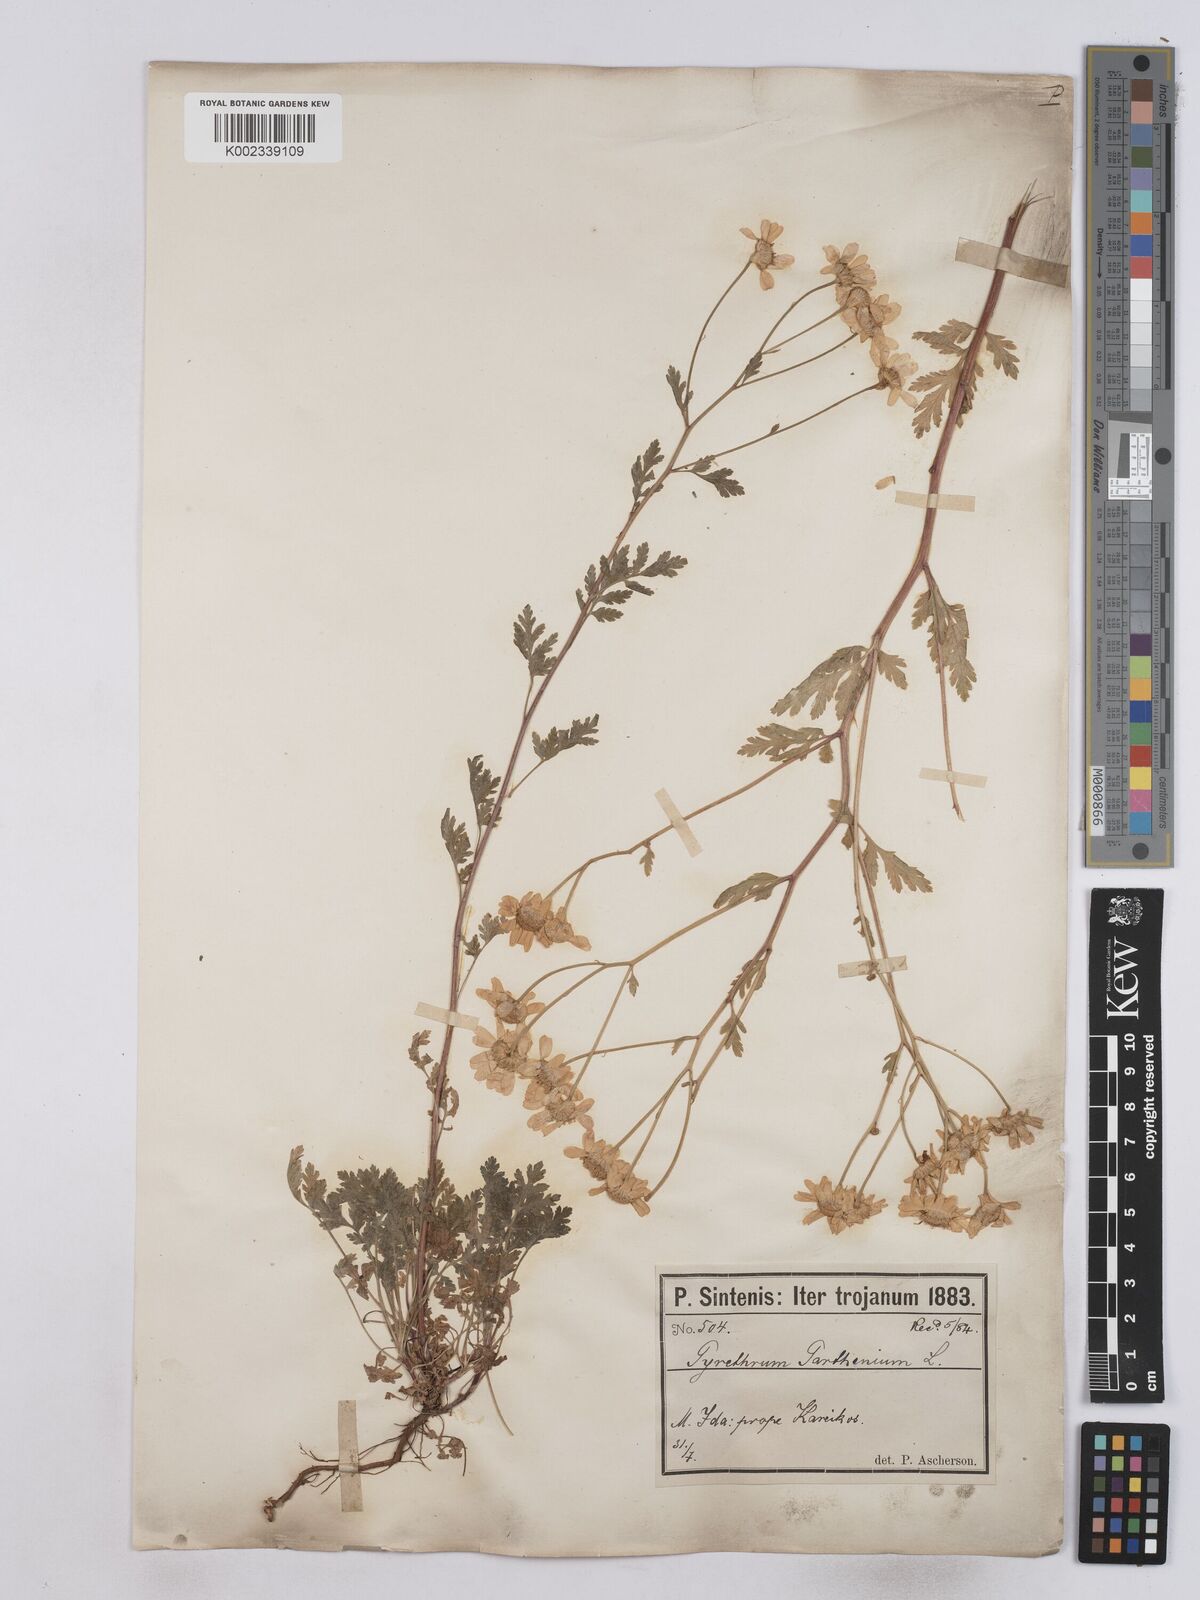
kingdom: Plantae
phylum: Tracheophyta
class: Magnoliopsida
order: Asterales
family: Asteraceae
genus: Tanacetum
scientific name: Tanacetum parthenium
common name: Feverfew
